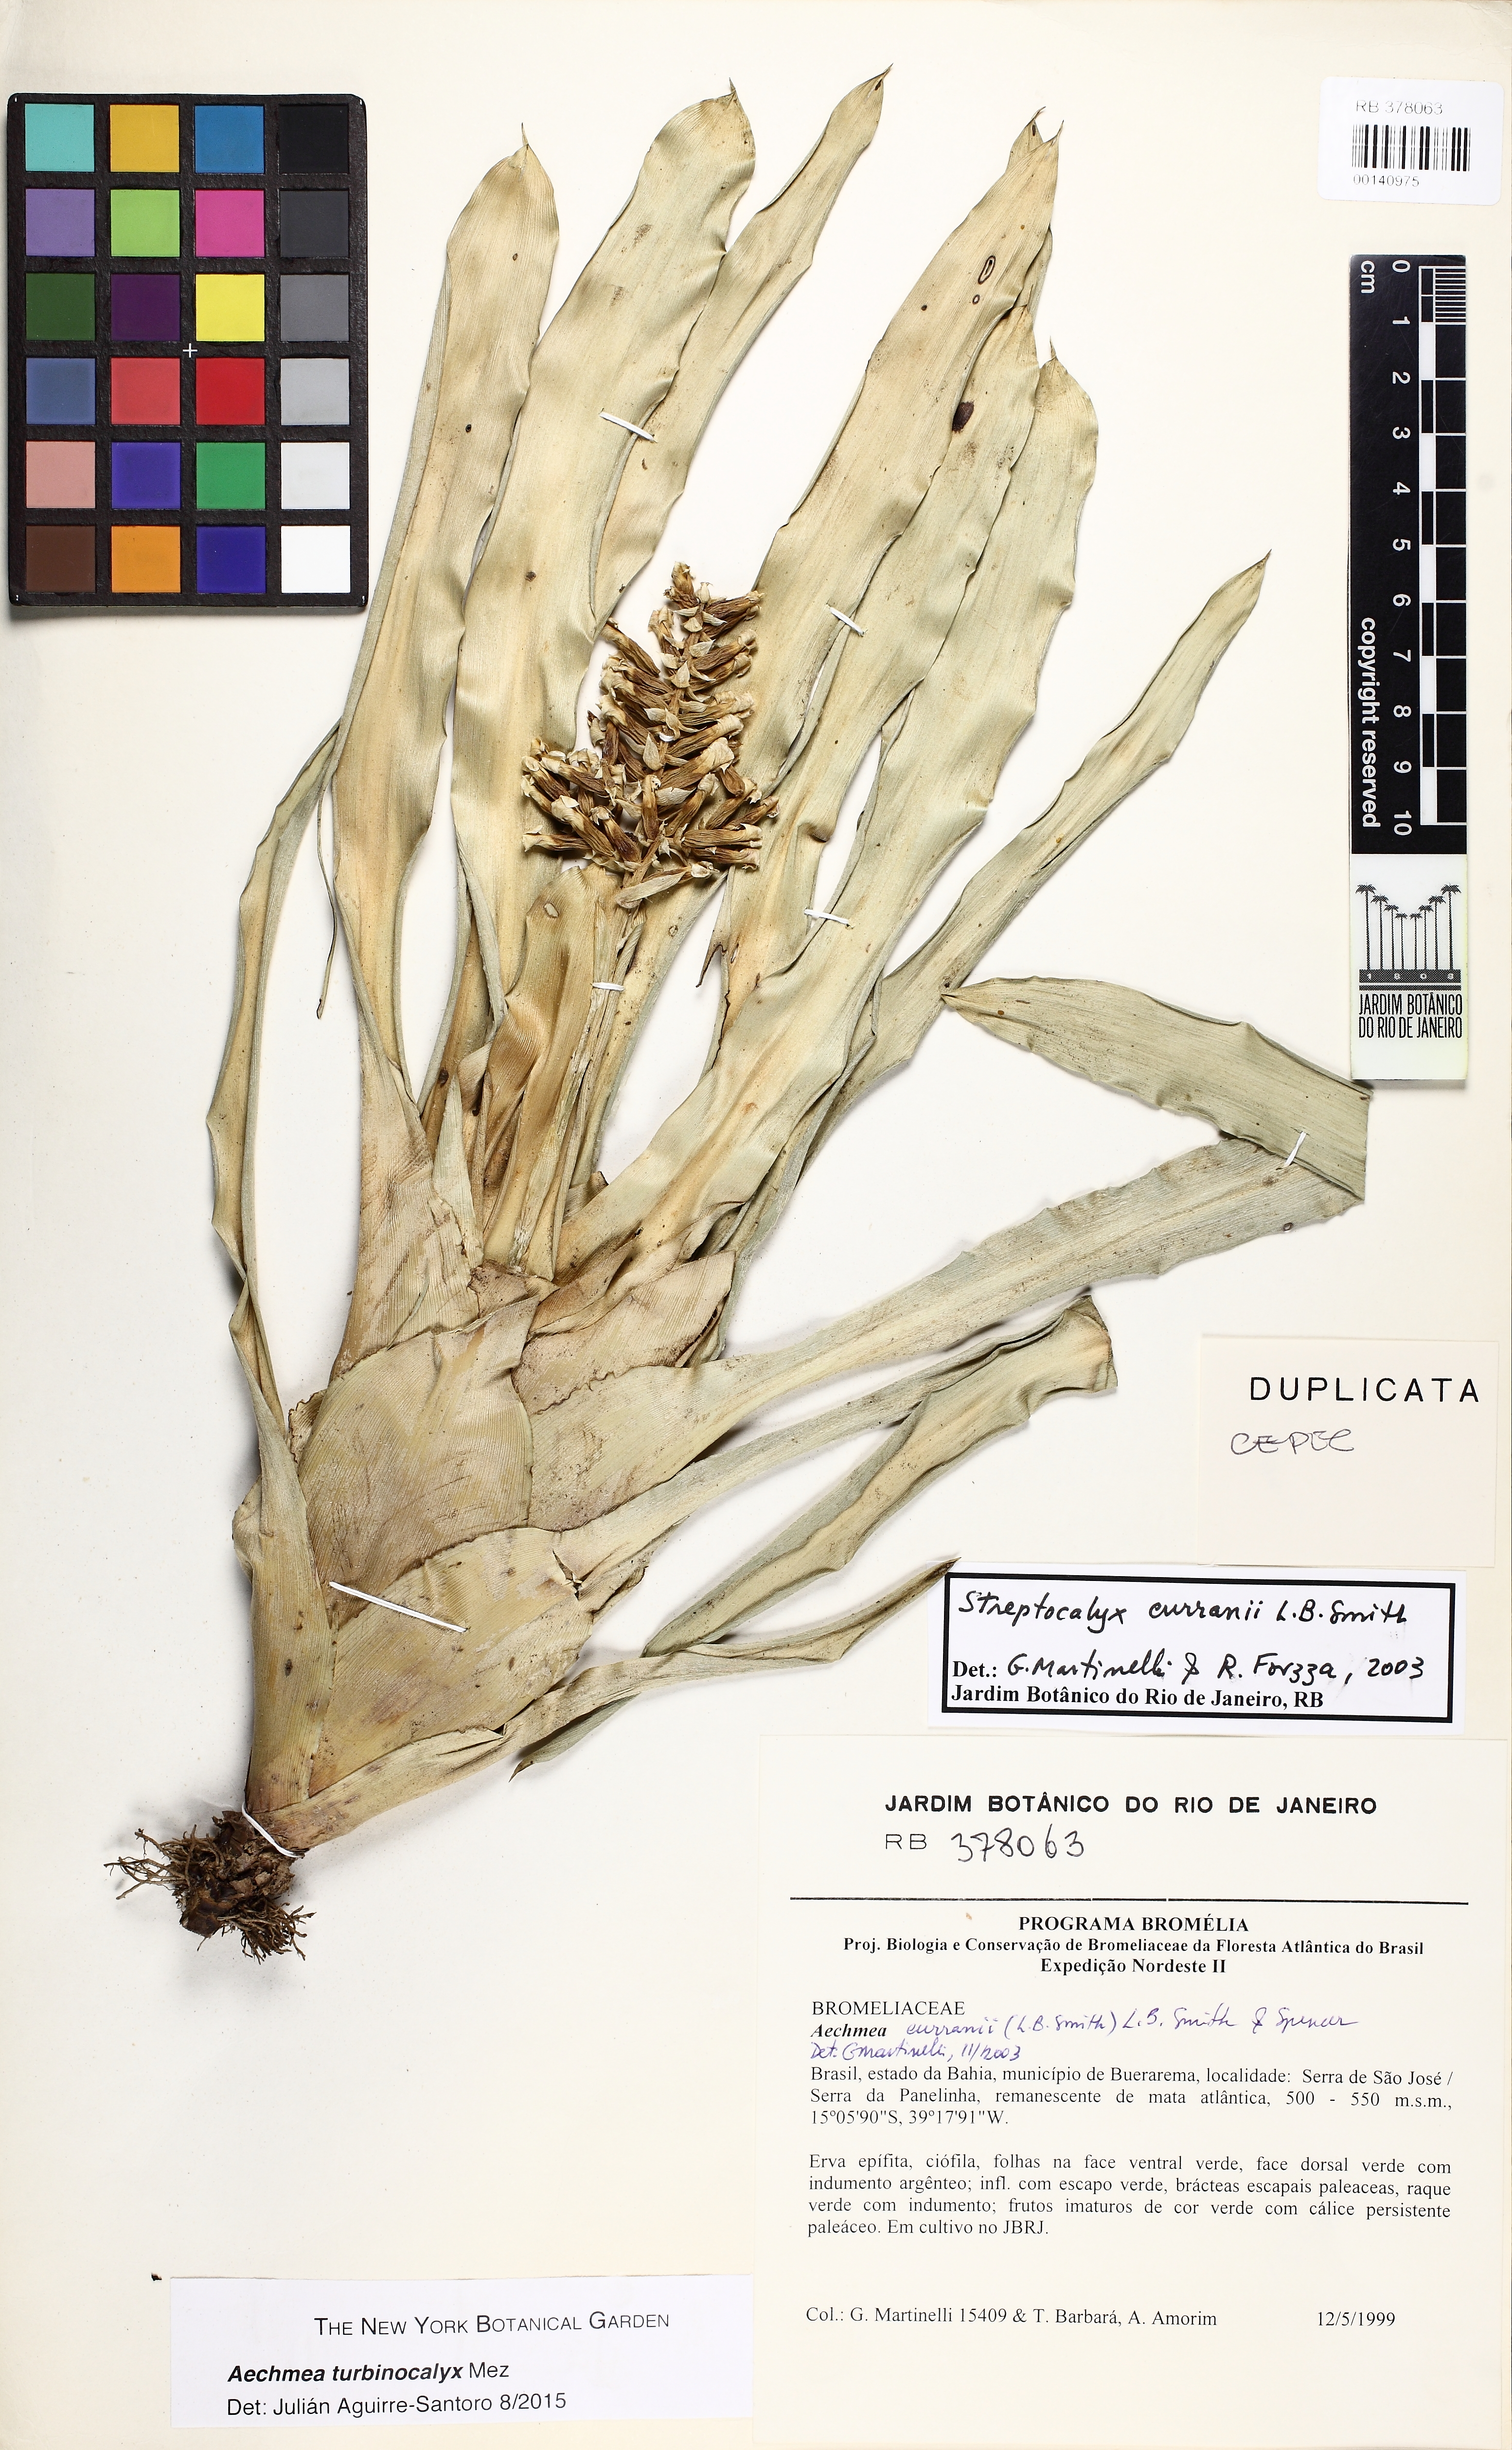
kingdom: Plantae
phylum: Tracheophyta
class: Liliopsida
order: Poales
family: Bromeliaceae
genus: Wittmackia
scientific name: Wittmackia turbinocalyx
